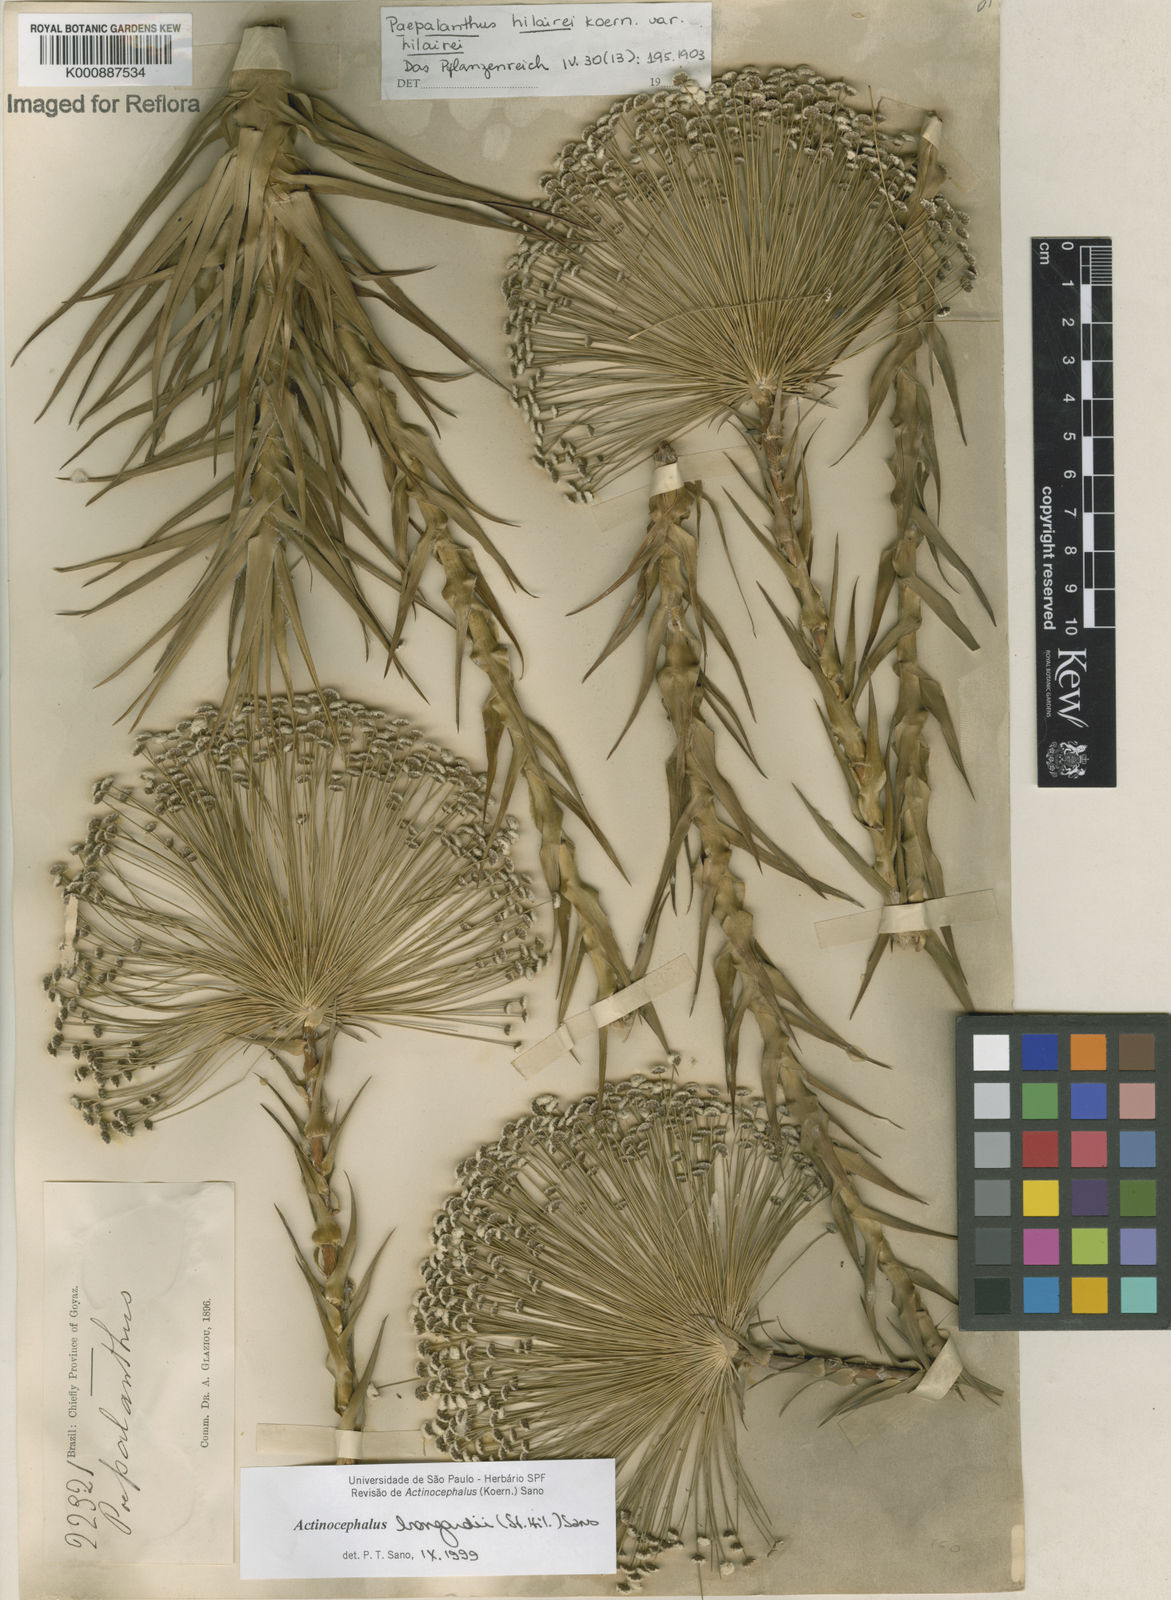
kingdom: Plantae
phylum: Tracheophyta
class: Liliopsida
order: Poales
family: Eriocaulaceae
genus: Paepalanthus
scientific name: Paepalanthus hilairei
